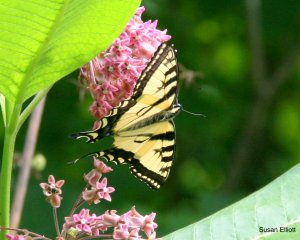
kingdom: Animalia
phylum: Arthropoda
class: Insecta
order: Lepidoptera
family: Papilionidae
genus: Pterourus
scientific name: Pterourus glaucus
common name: Eastern Tiger Swallowtail
